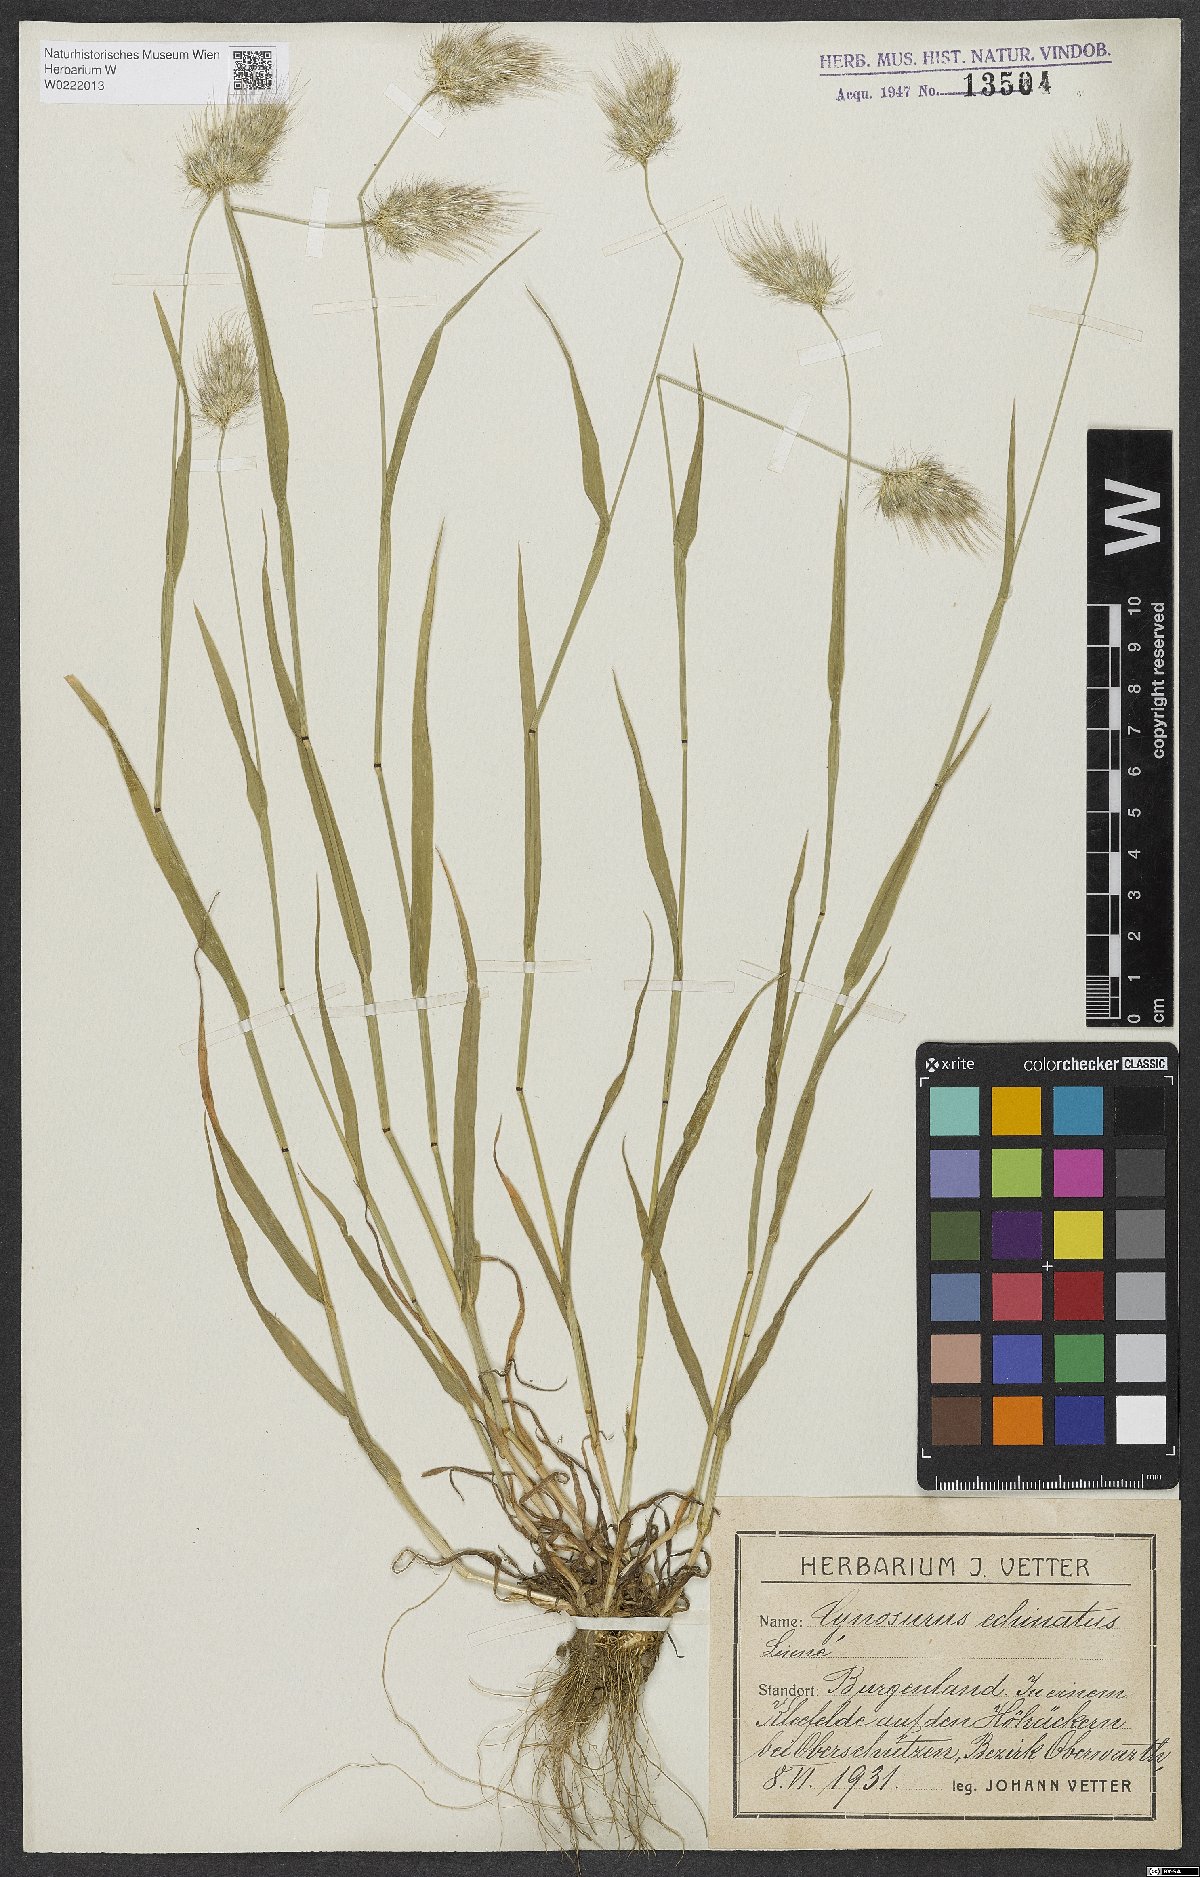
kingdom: Plantae
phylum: Tracheophyta
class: Liliopsida
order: Poales
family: Poaceae
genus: Cynosurus
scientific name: Cynosurus echinatus
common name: Rough dog's-tail
